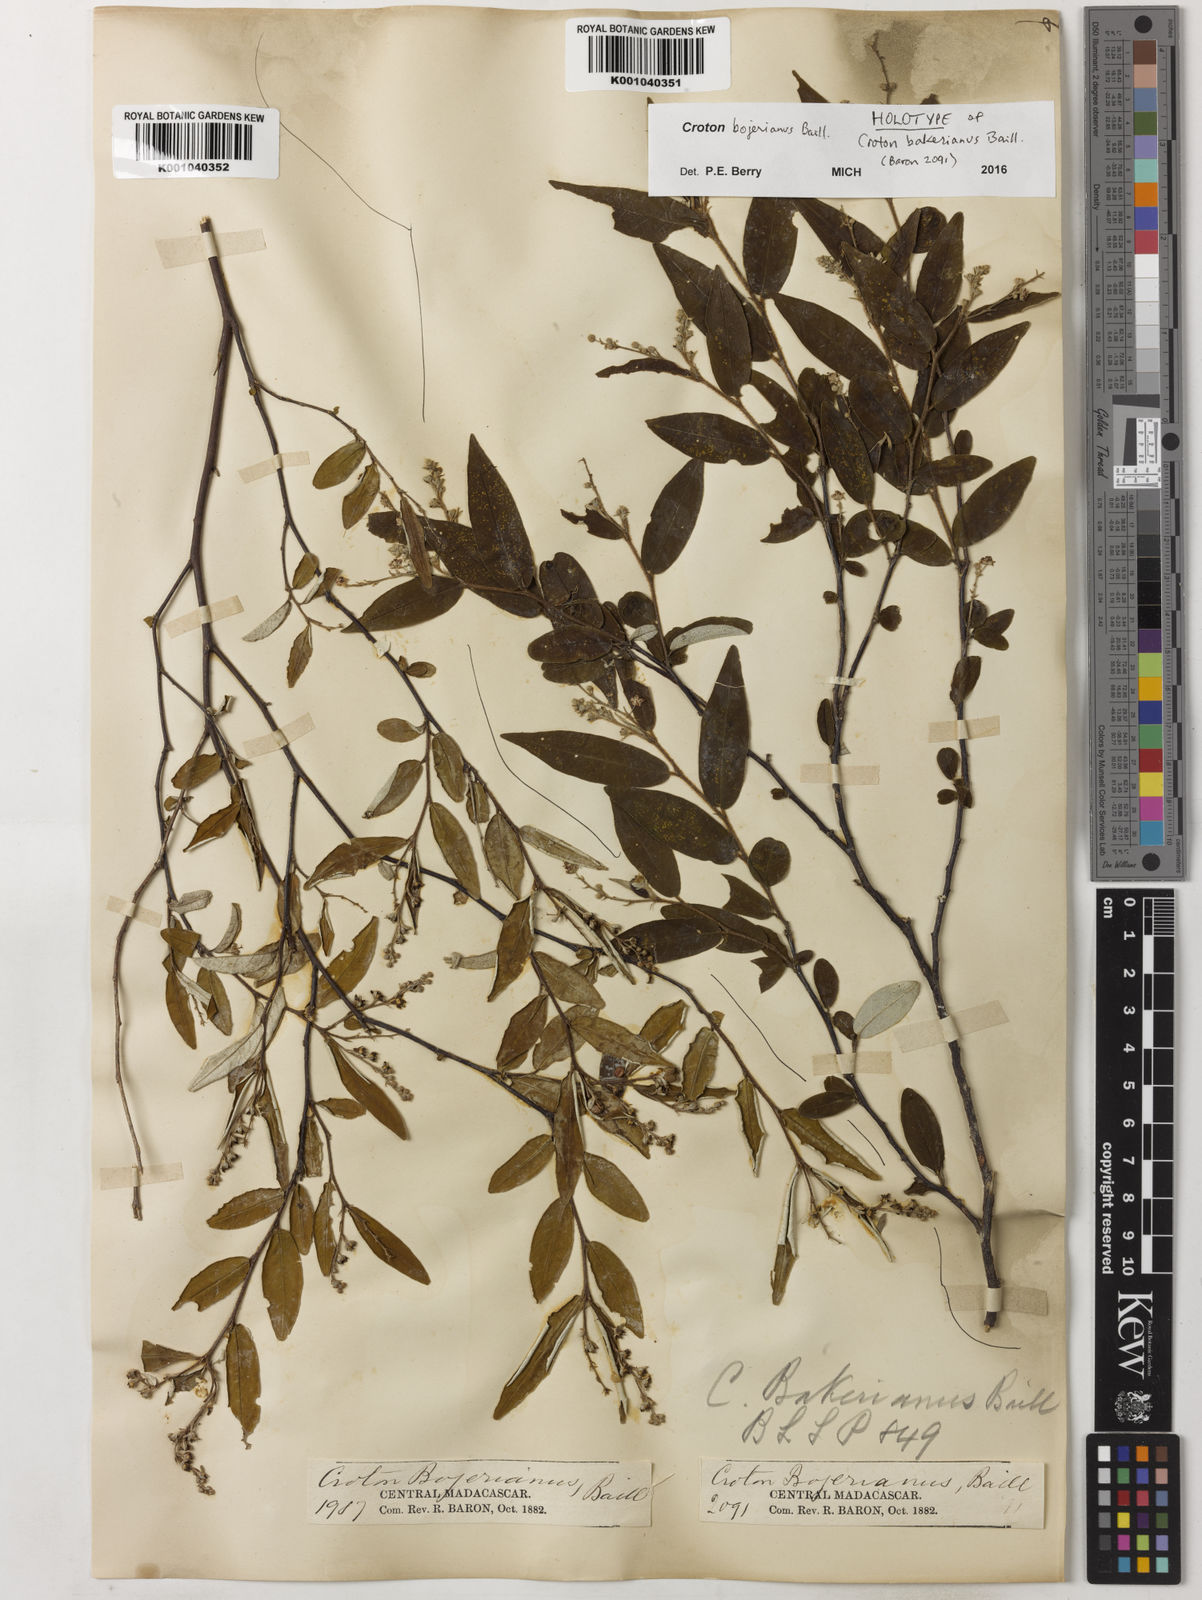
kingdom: Plantae
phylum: Tracheophyta
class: Magnoliopsida
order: Malpighiales
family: Euphorbiaceae
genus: Croton
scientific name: Croton bojerianus
